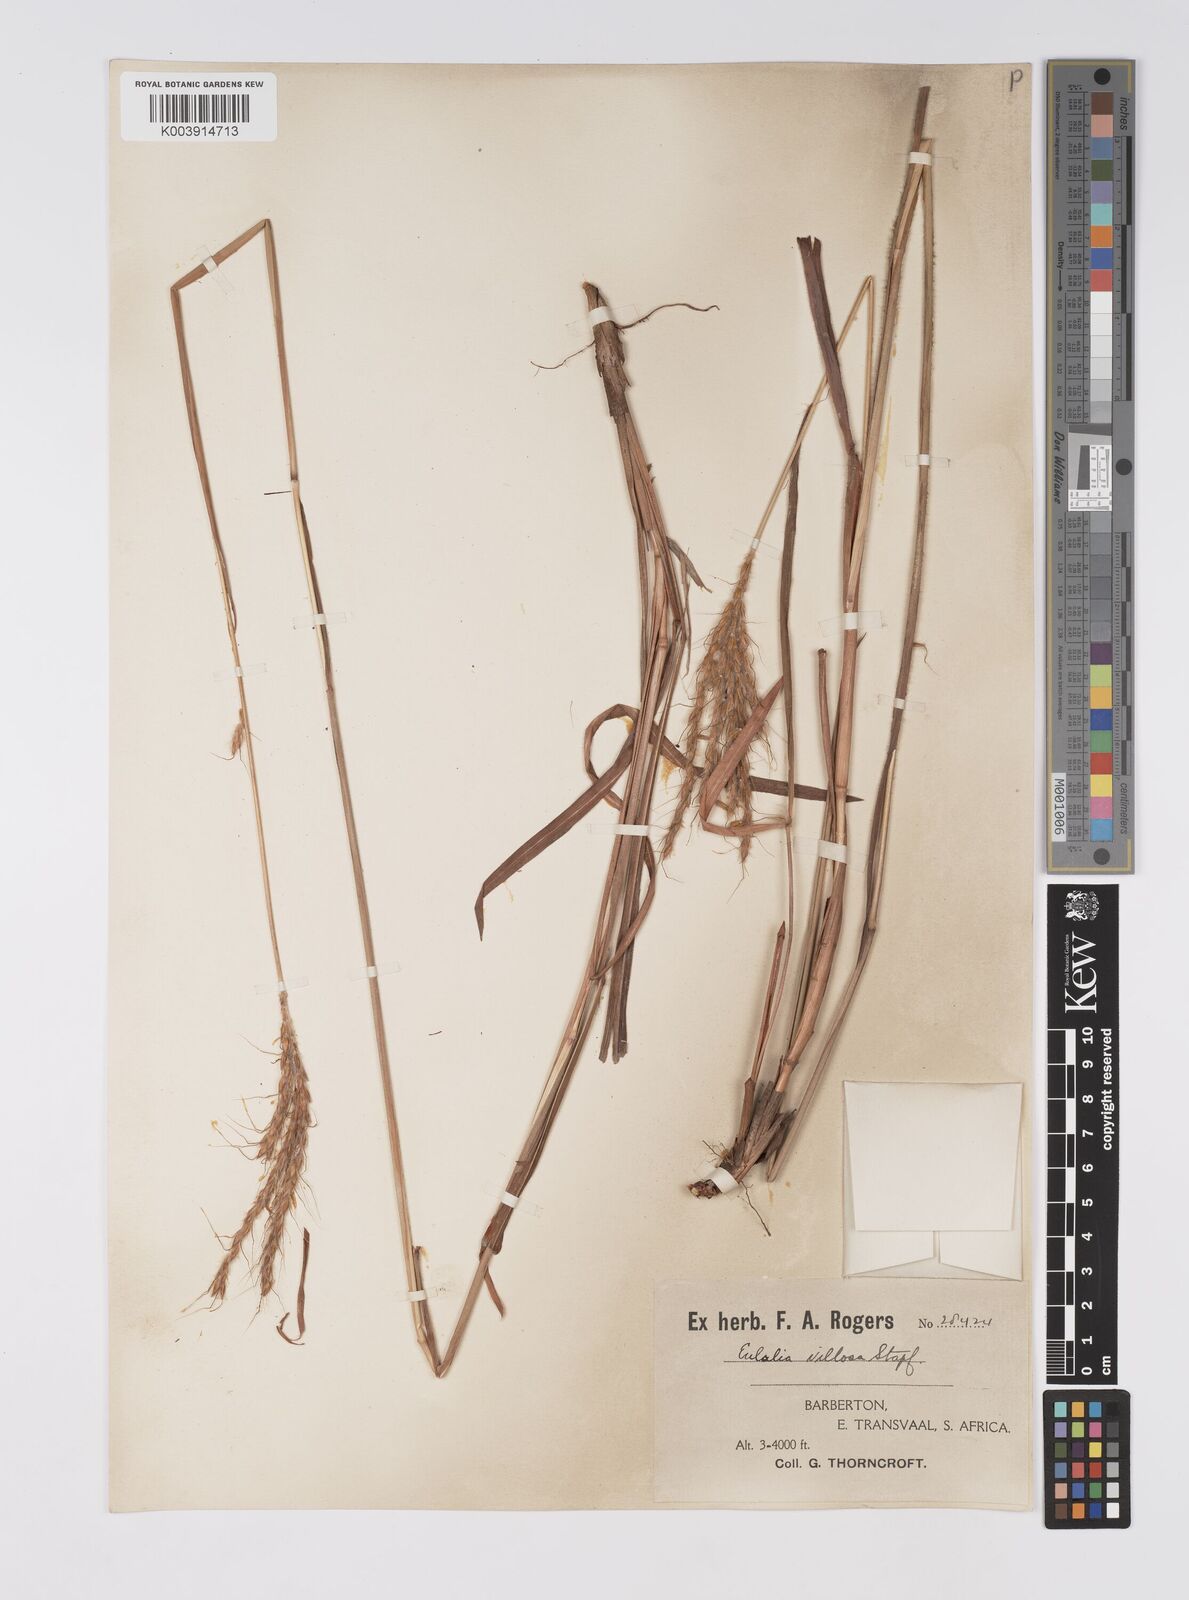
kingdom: Plantae
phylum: Tracheophyta
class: Liliopsida
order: Poales
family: Poaceae
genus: Eulalia
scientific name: Eulalia villosa
